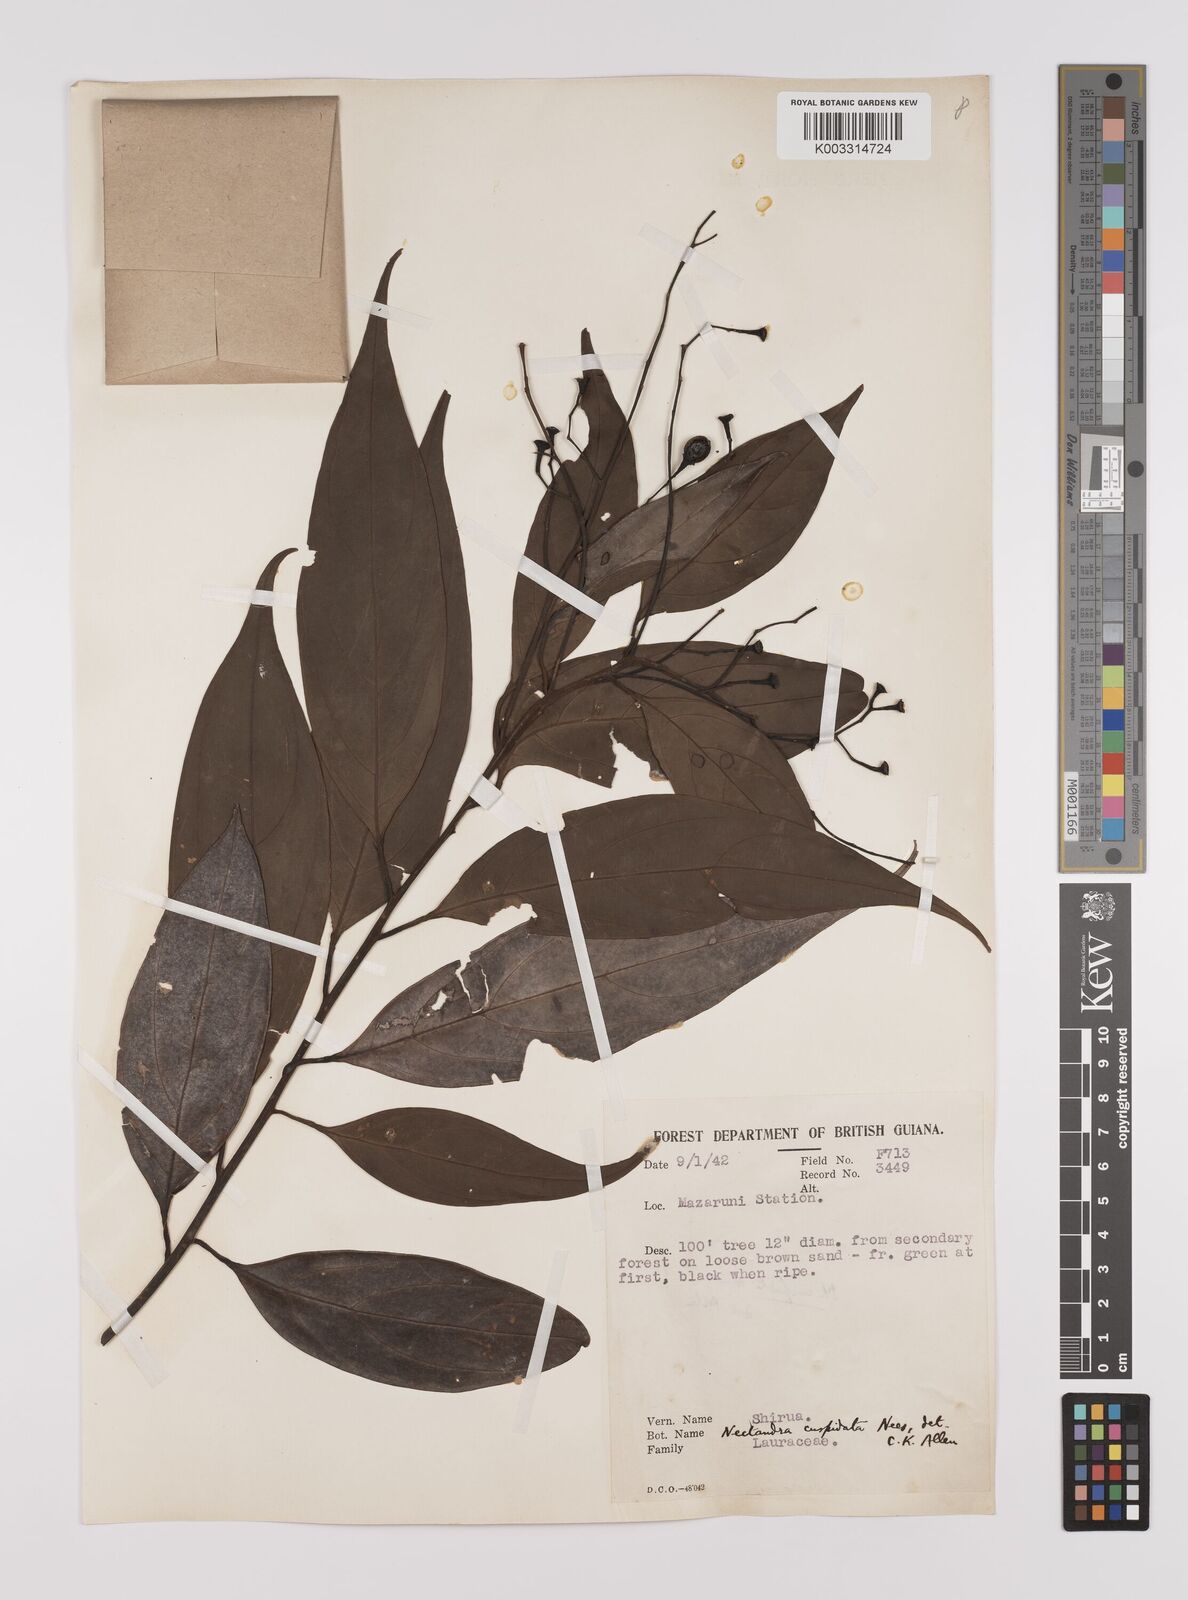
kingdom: Plantae
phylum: Tracheophyta
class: Magnoliopsida
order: Laurales
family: Lauraceae
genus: Nectandra
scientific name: Nectandra cuspidata
